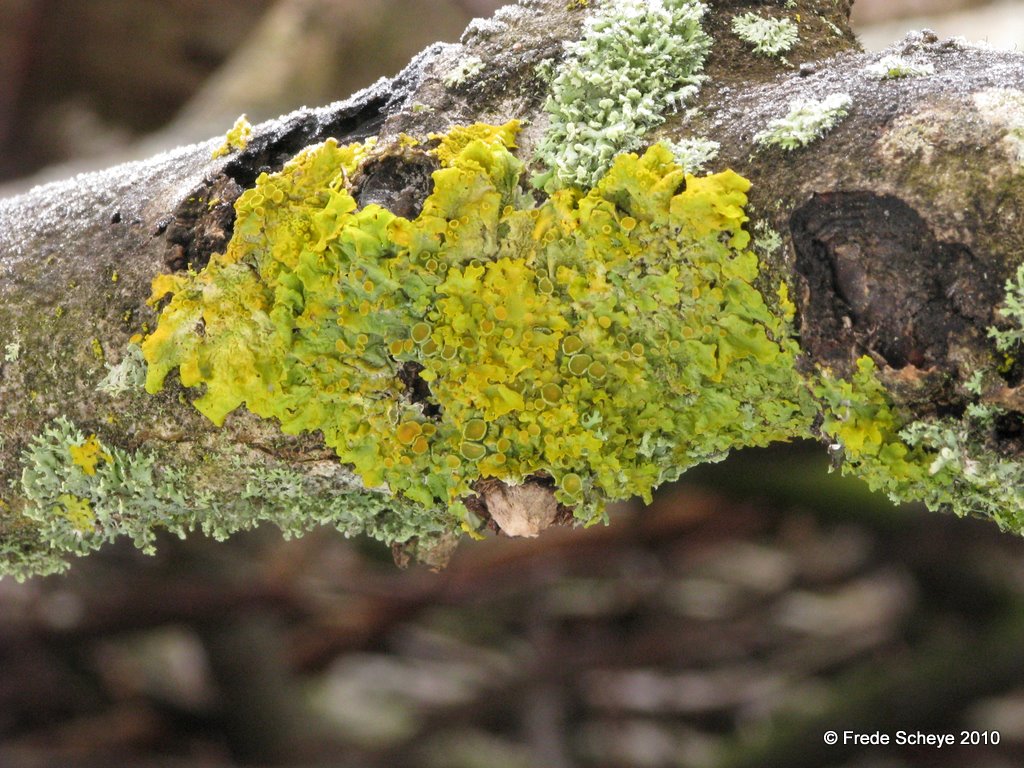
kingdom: Fungi
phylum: Ascomycota
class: Lecanoromycetes
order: Teloschistales
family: Teloschistaceae
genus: Xanthoria
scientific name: Xanthoria parietina
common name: almindelig væggelav
